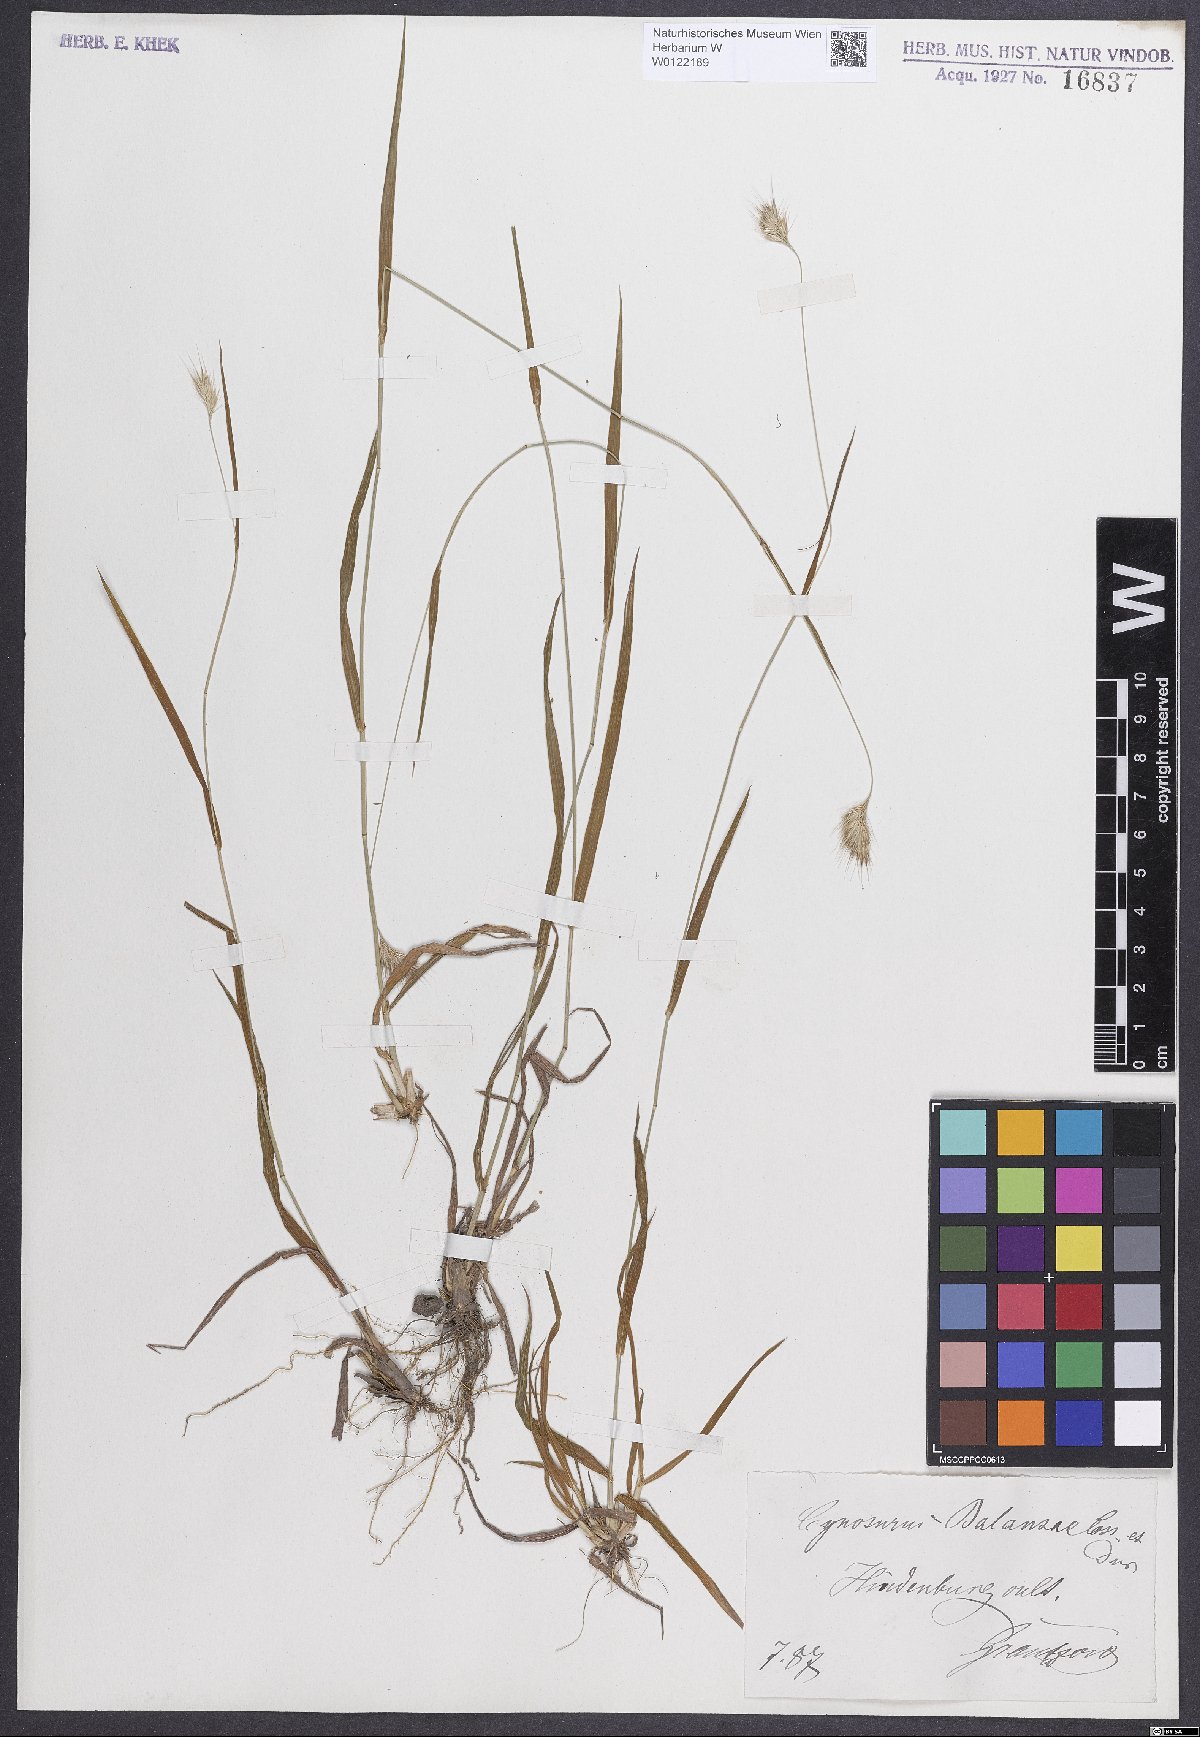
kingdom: Plantae
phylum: Tracheophyta
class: Liliopsida
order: Poales
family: Poaceae
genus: Cynosurus
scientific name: Cynosurus balansae
